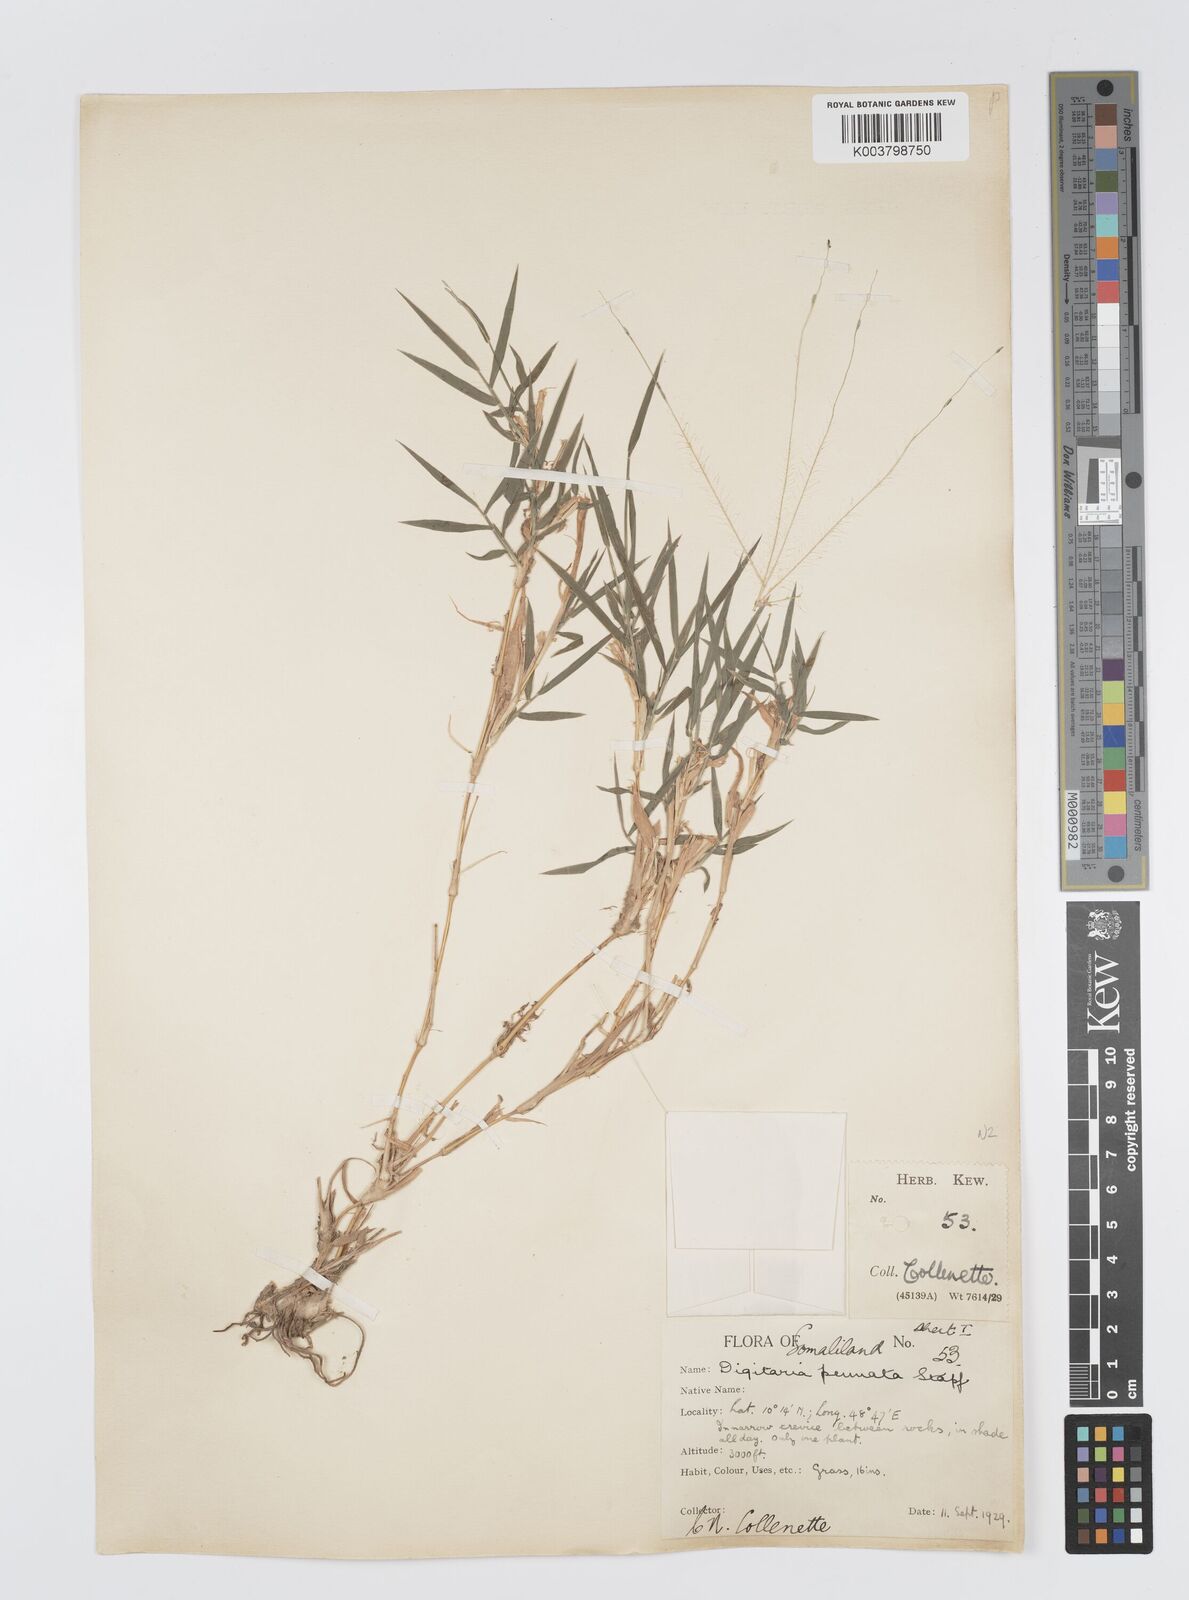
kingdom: Plantae
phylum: Tracheophyta
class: Liliopsida
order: Poales
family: Poaceae
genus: Digitaria
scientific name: Digitaria pennata
